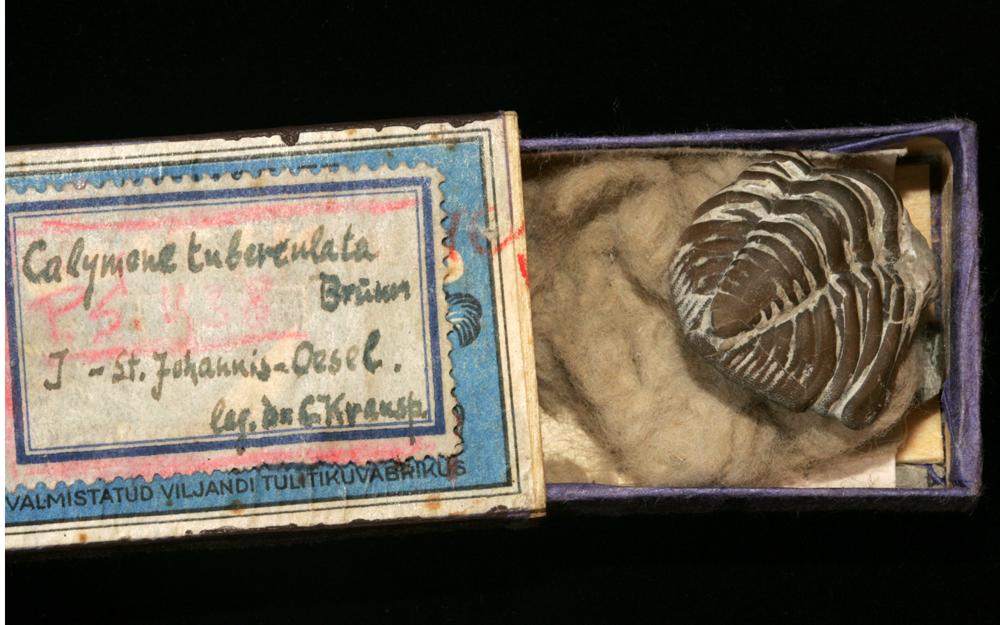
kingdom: Animalia
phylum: Arthropoda
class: Trilobita
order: Phacopida
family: Calymenidae
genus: Calymene
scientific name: Calymene
